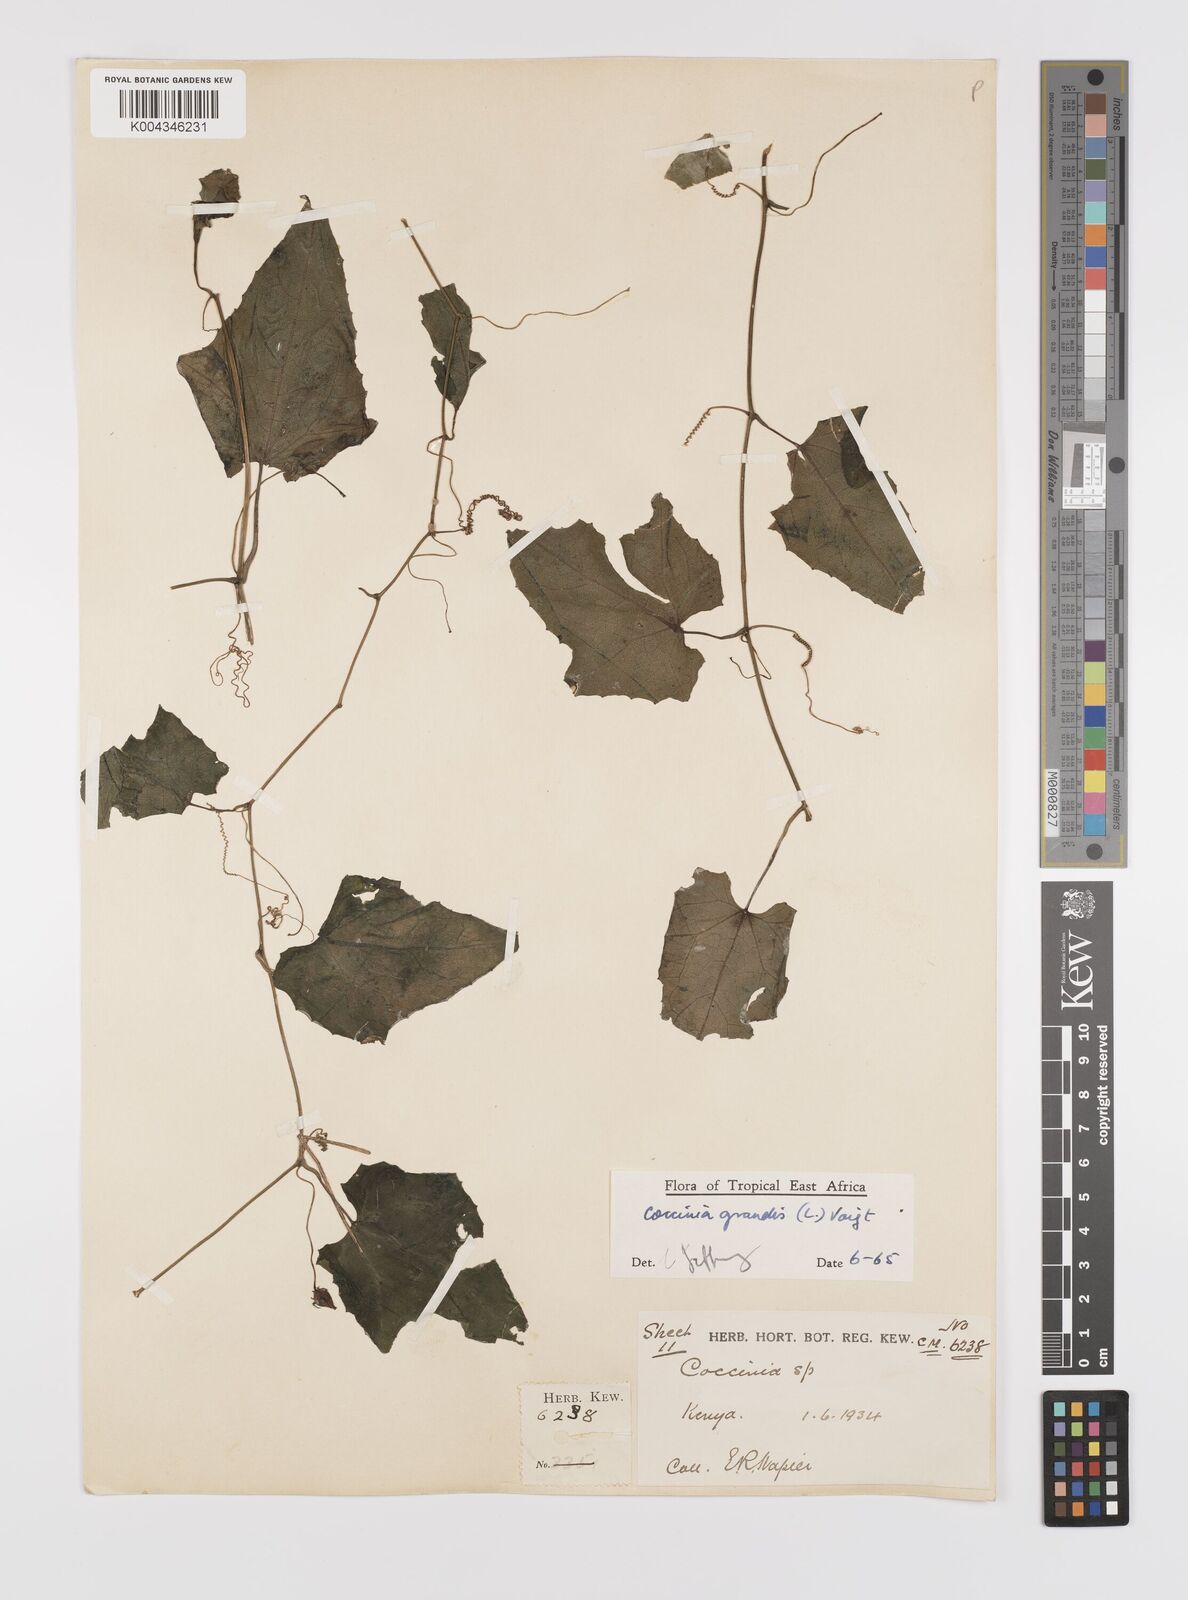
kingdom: Plantae
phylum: Tracheophyta
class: Magnoliopsida
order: Cucurbitales
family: Cucurbitaceae
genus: Coccinia
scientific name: Coccinia grandis
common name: Ivy gourd
